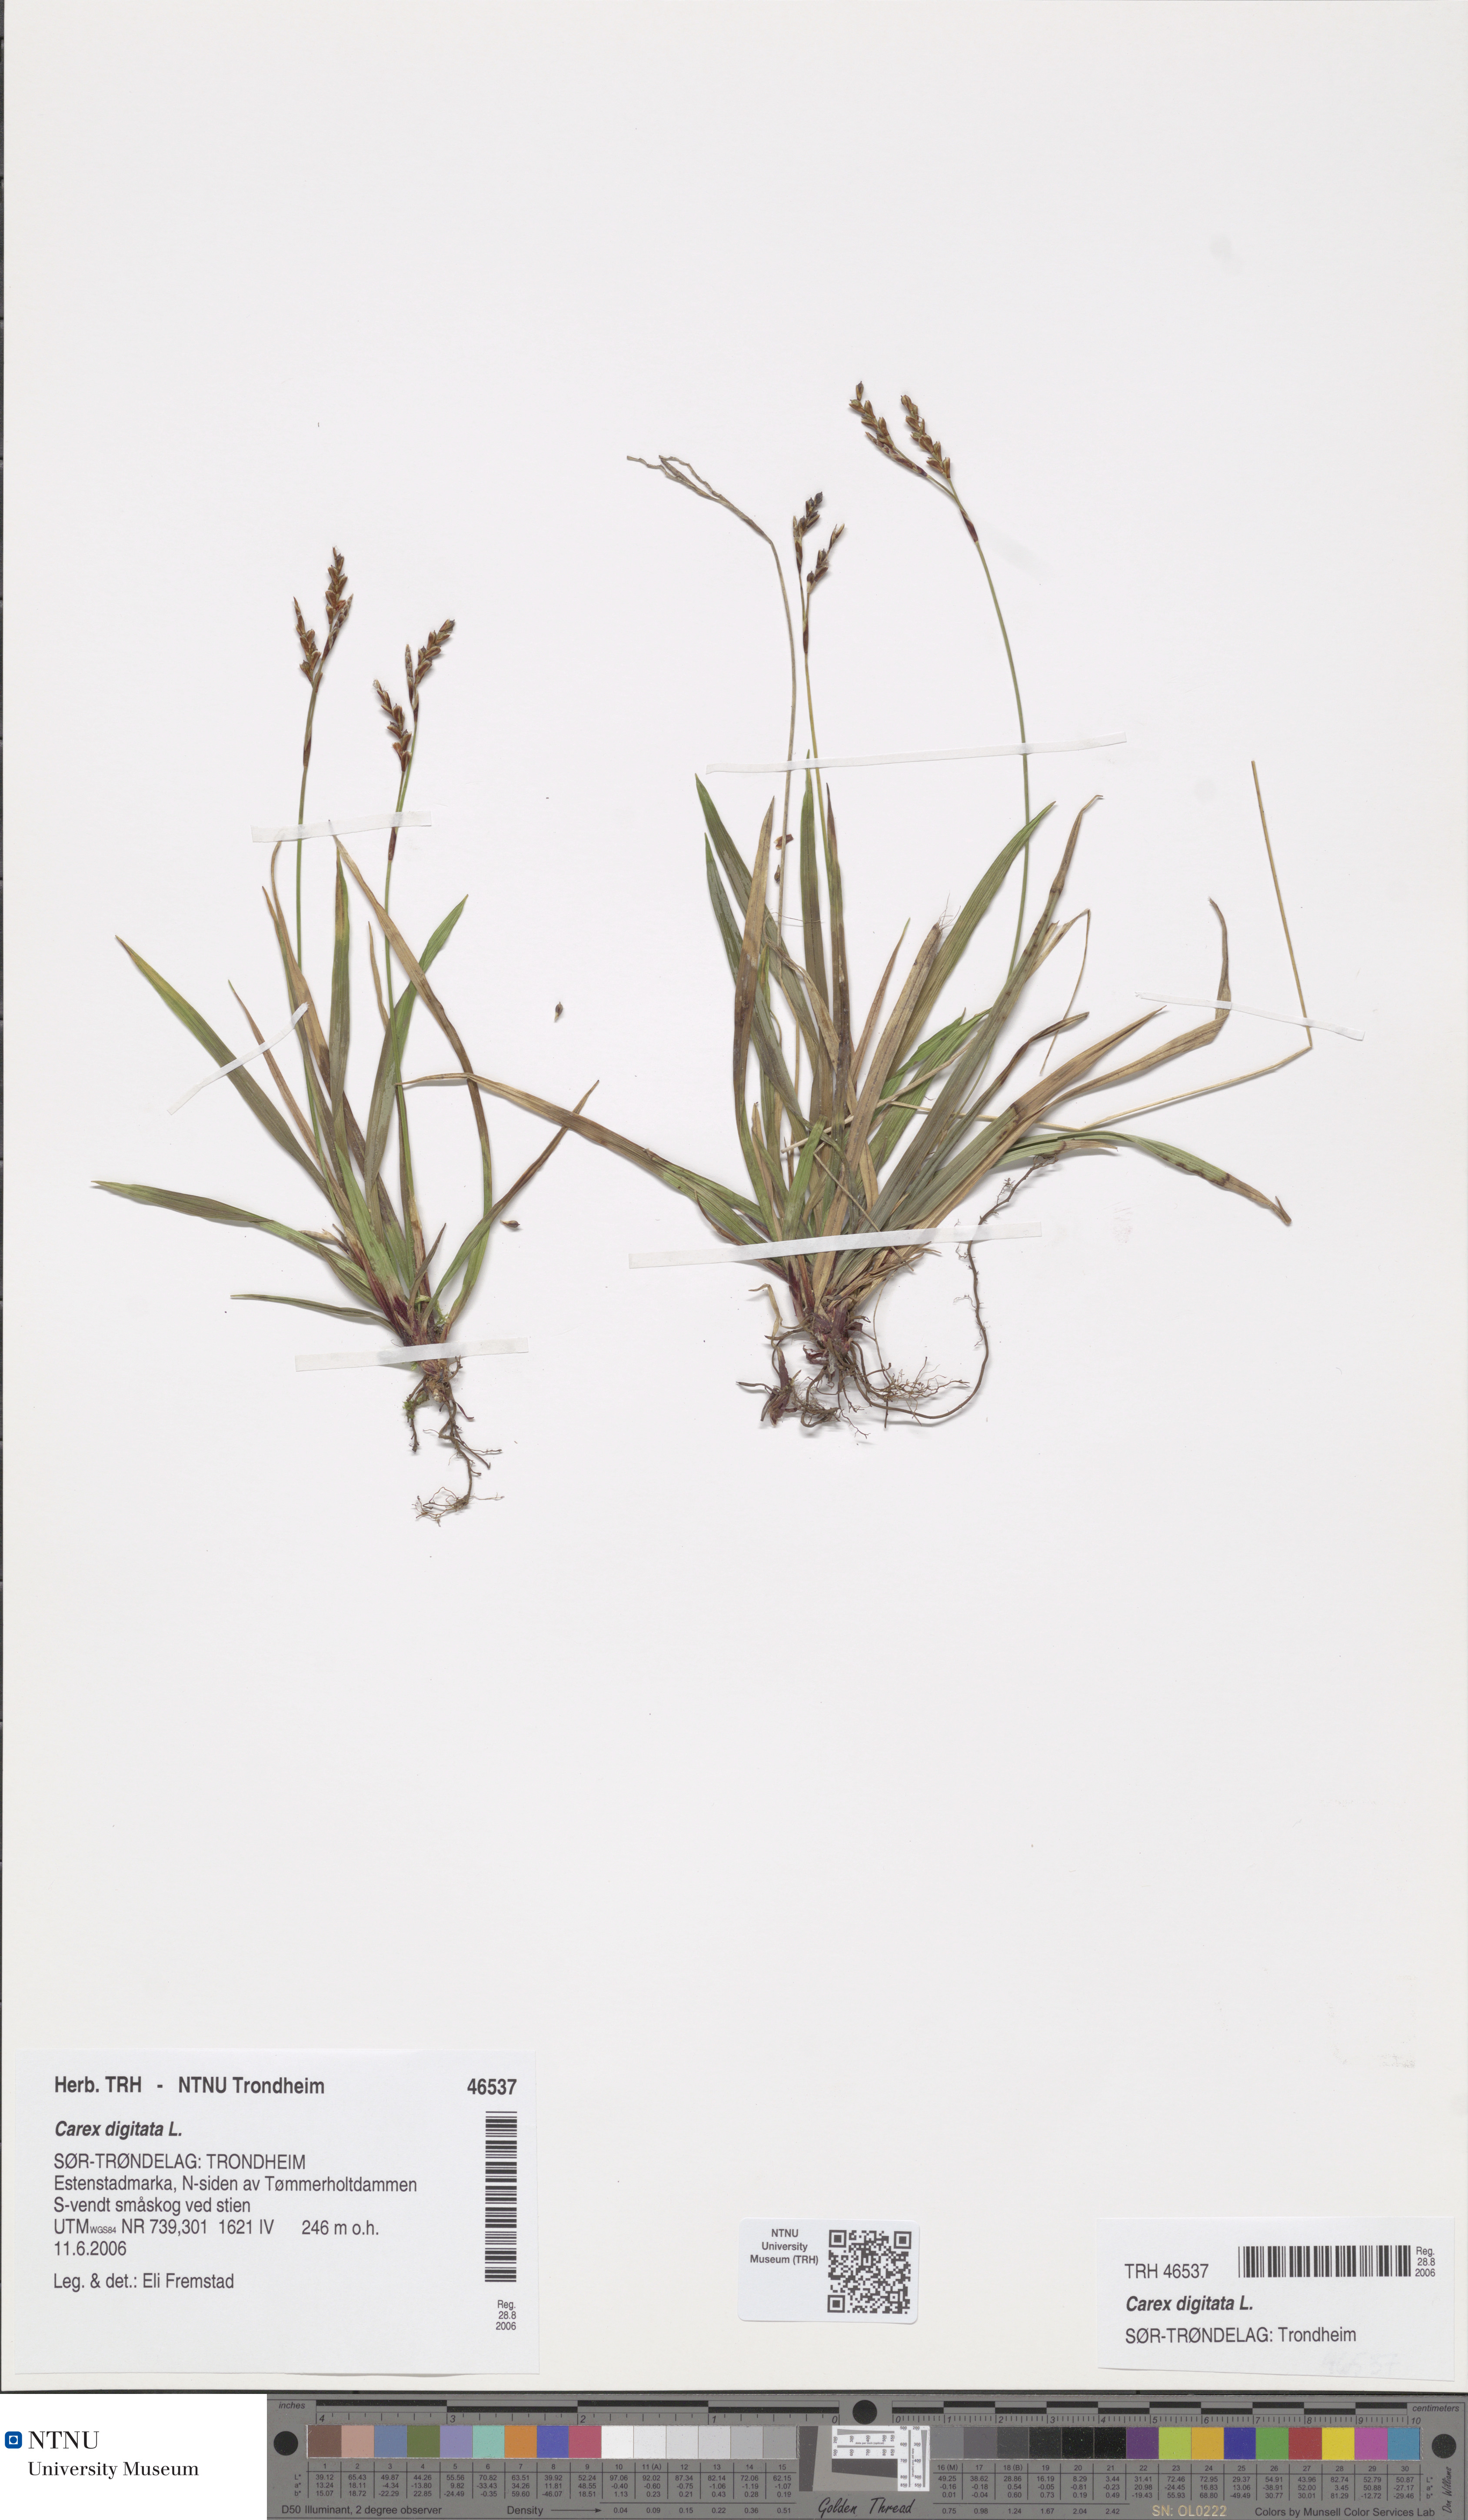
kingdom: Plantae
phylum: Tracheophyta
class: Liliopsida
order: Poales
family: Cyperaceae
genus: Carex
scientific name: Carex digitata
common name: Fingered sedge
